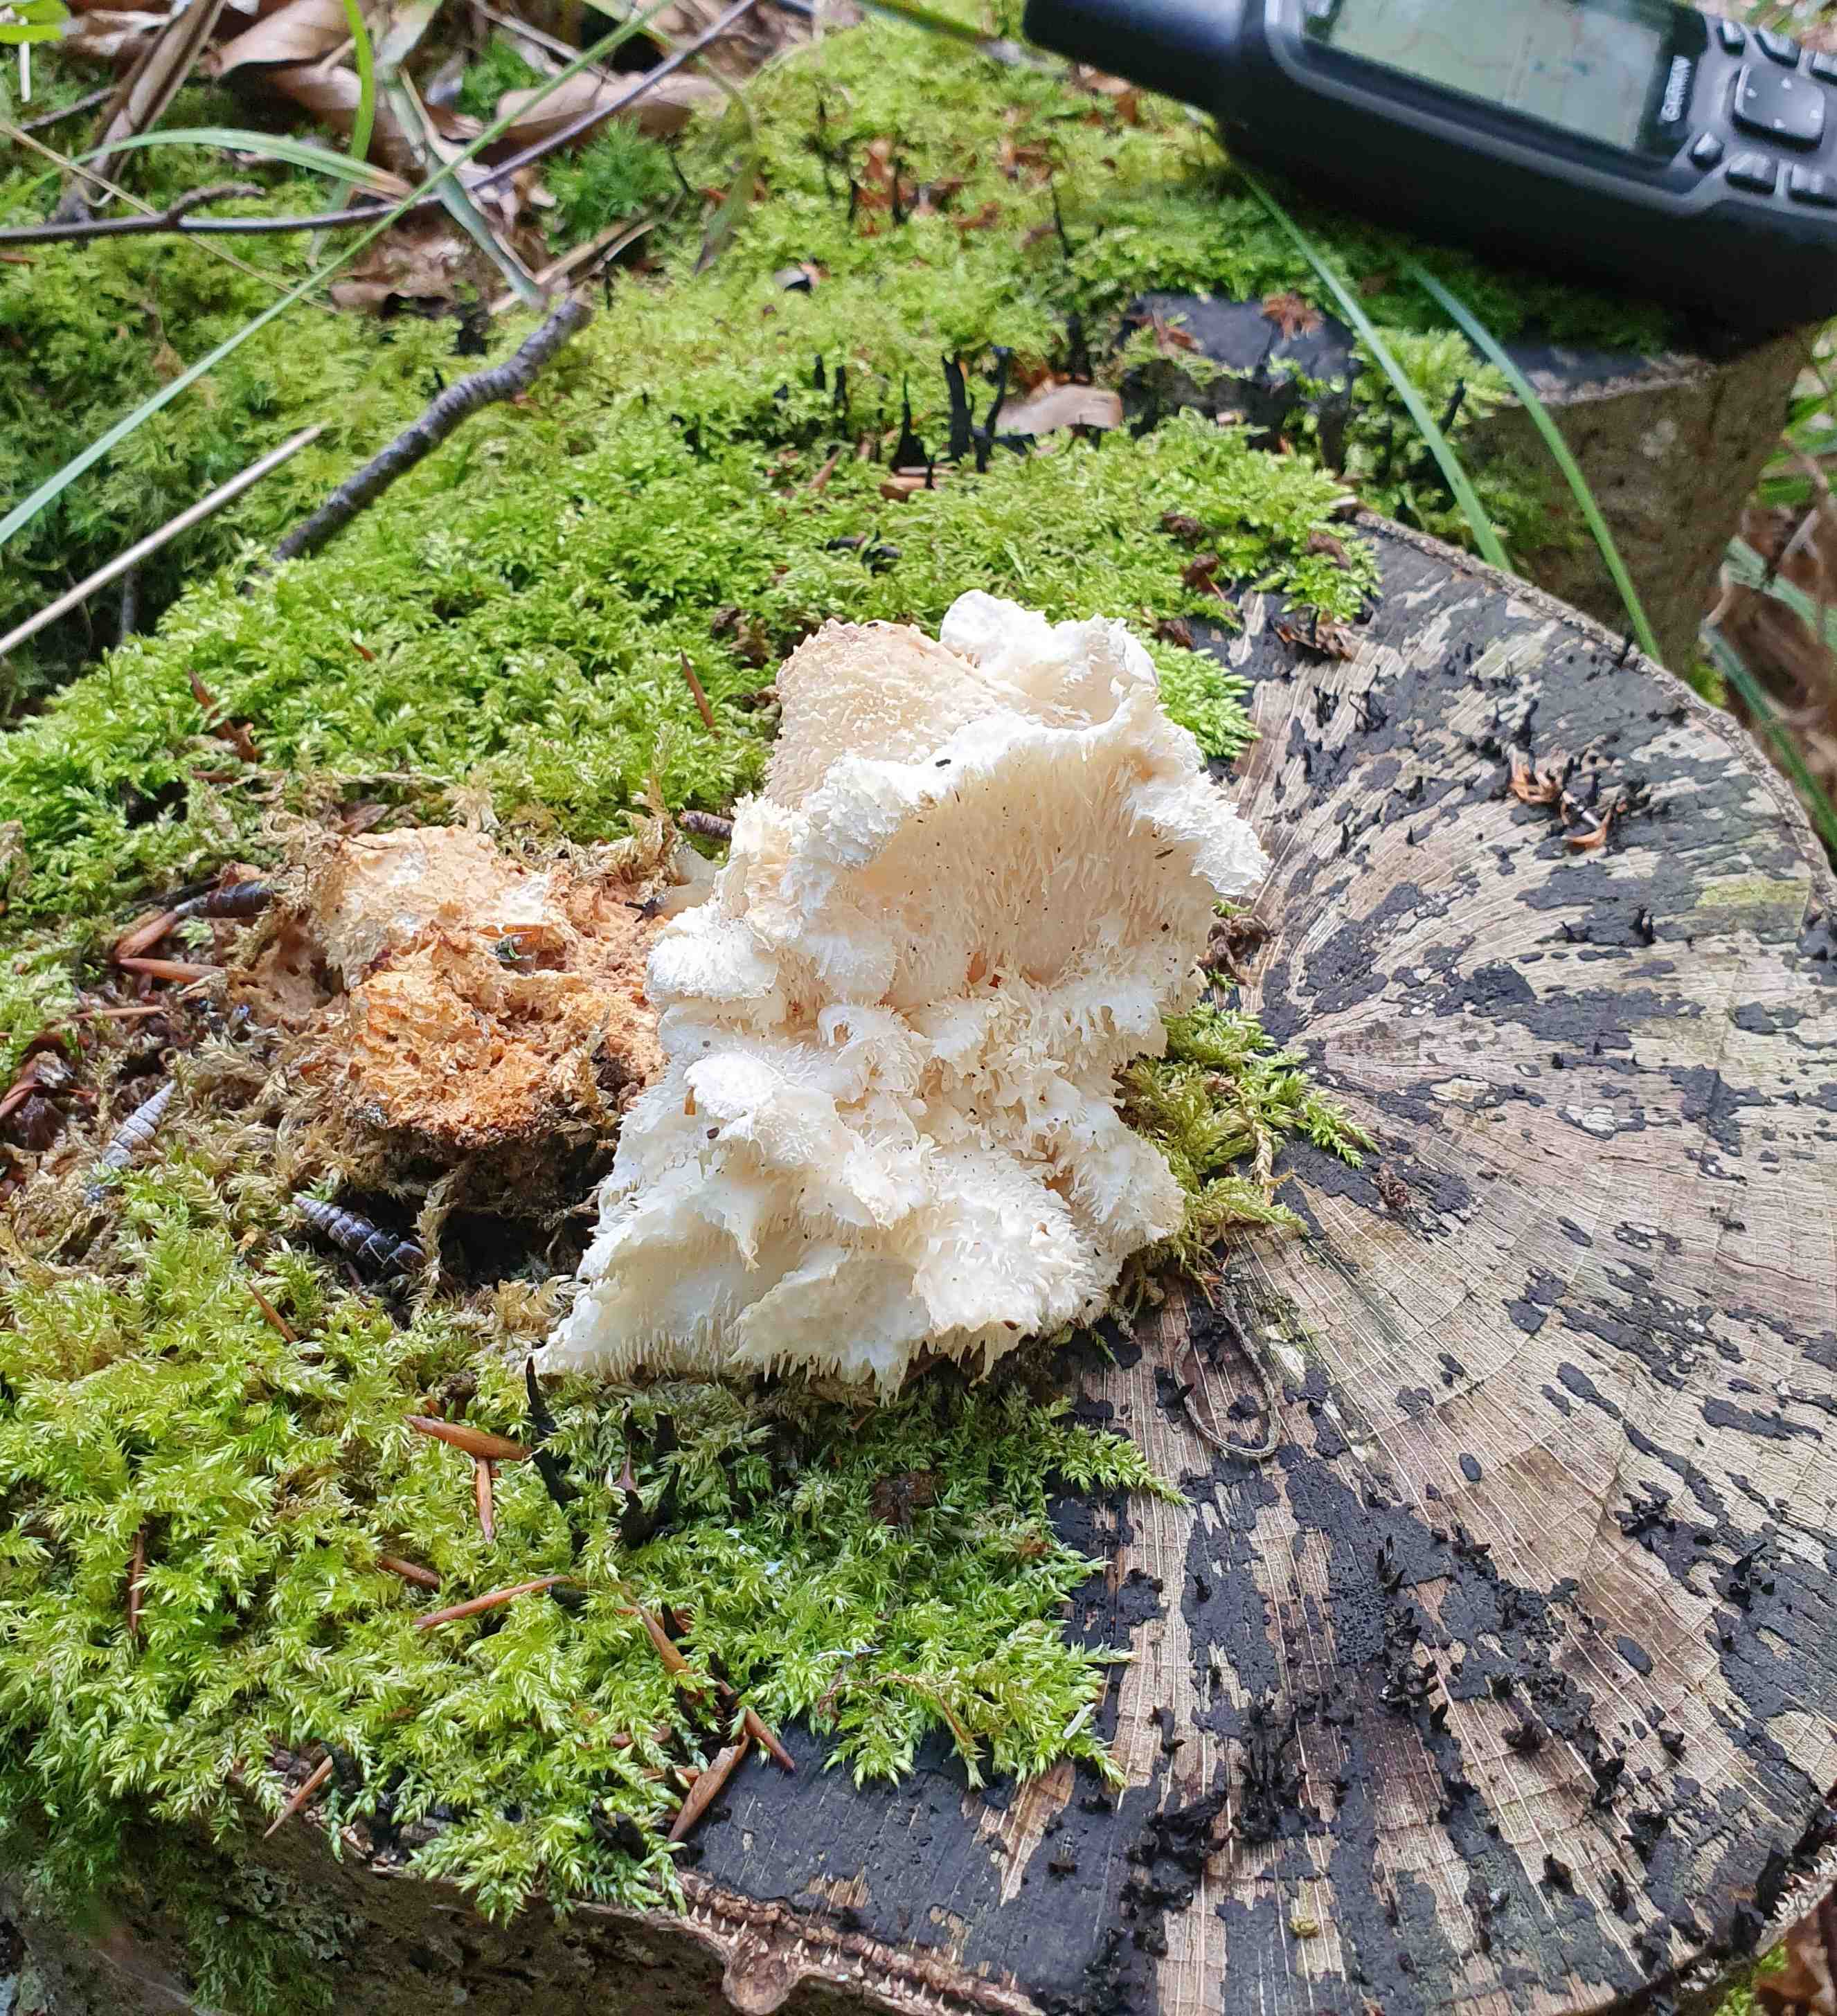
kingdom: Fungi
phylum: Basidiomycota
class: Agaricomycetes
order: Russulales
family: Hericiaceae
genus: Hericium
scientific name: Hericium cirrhatum
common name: børstepigsvamp
